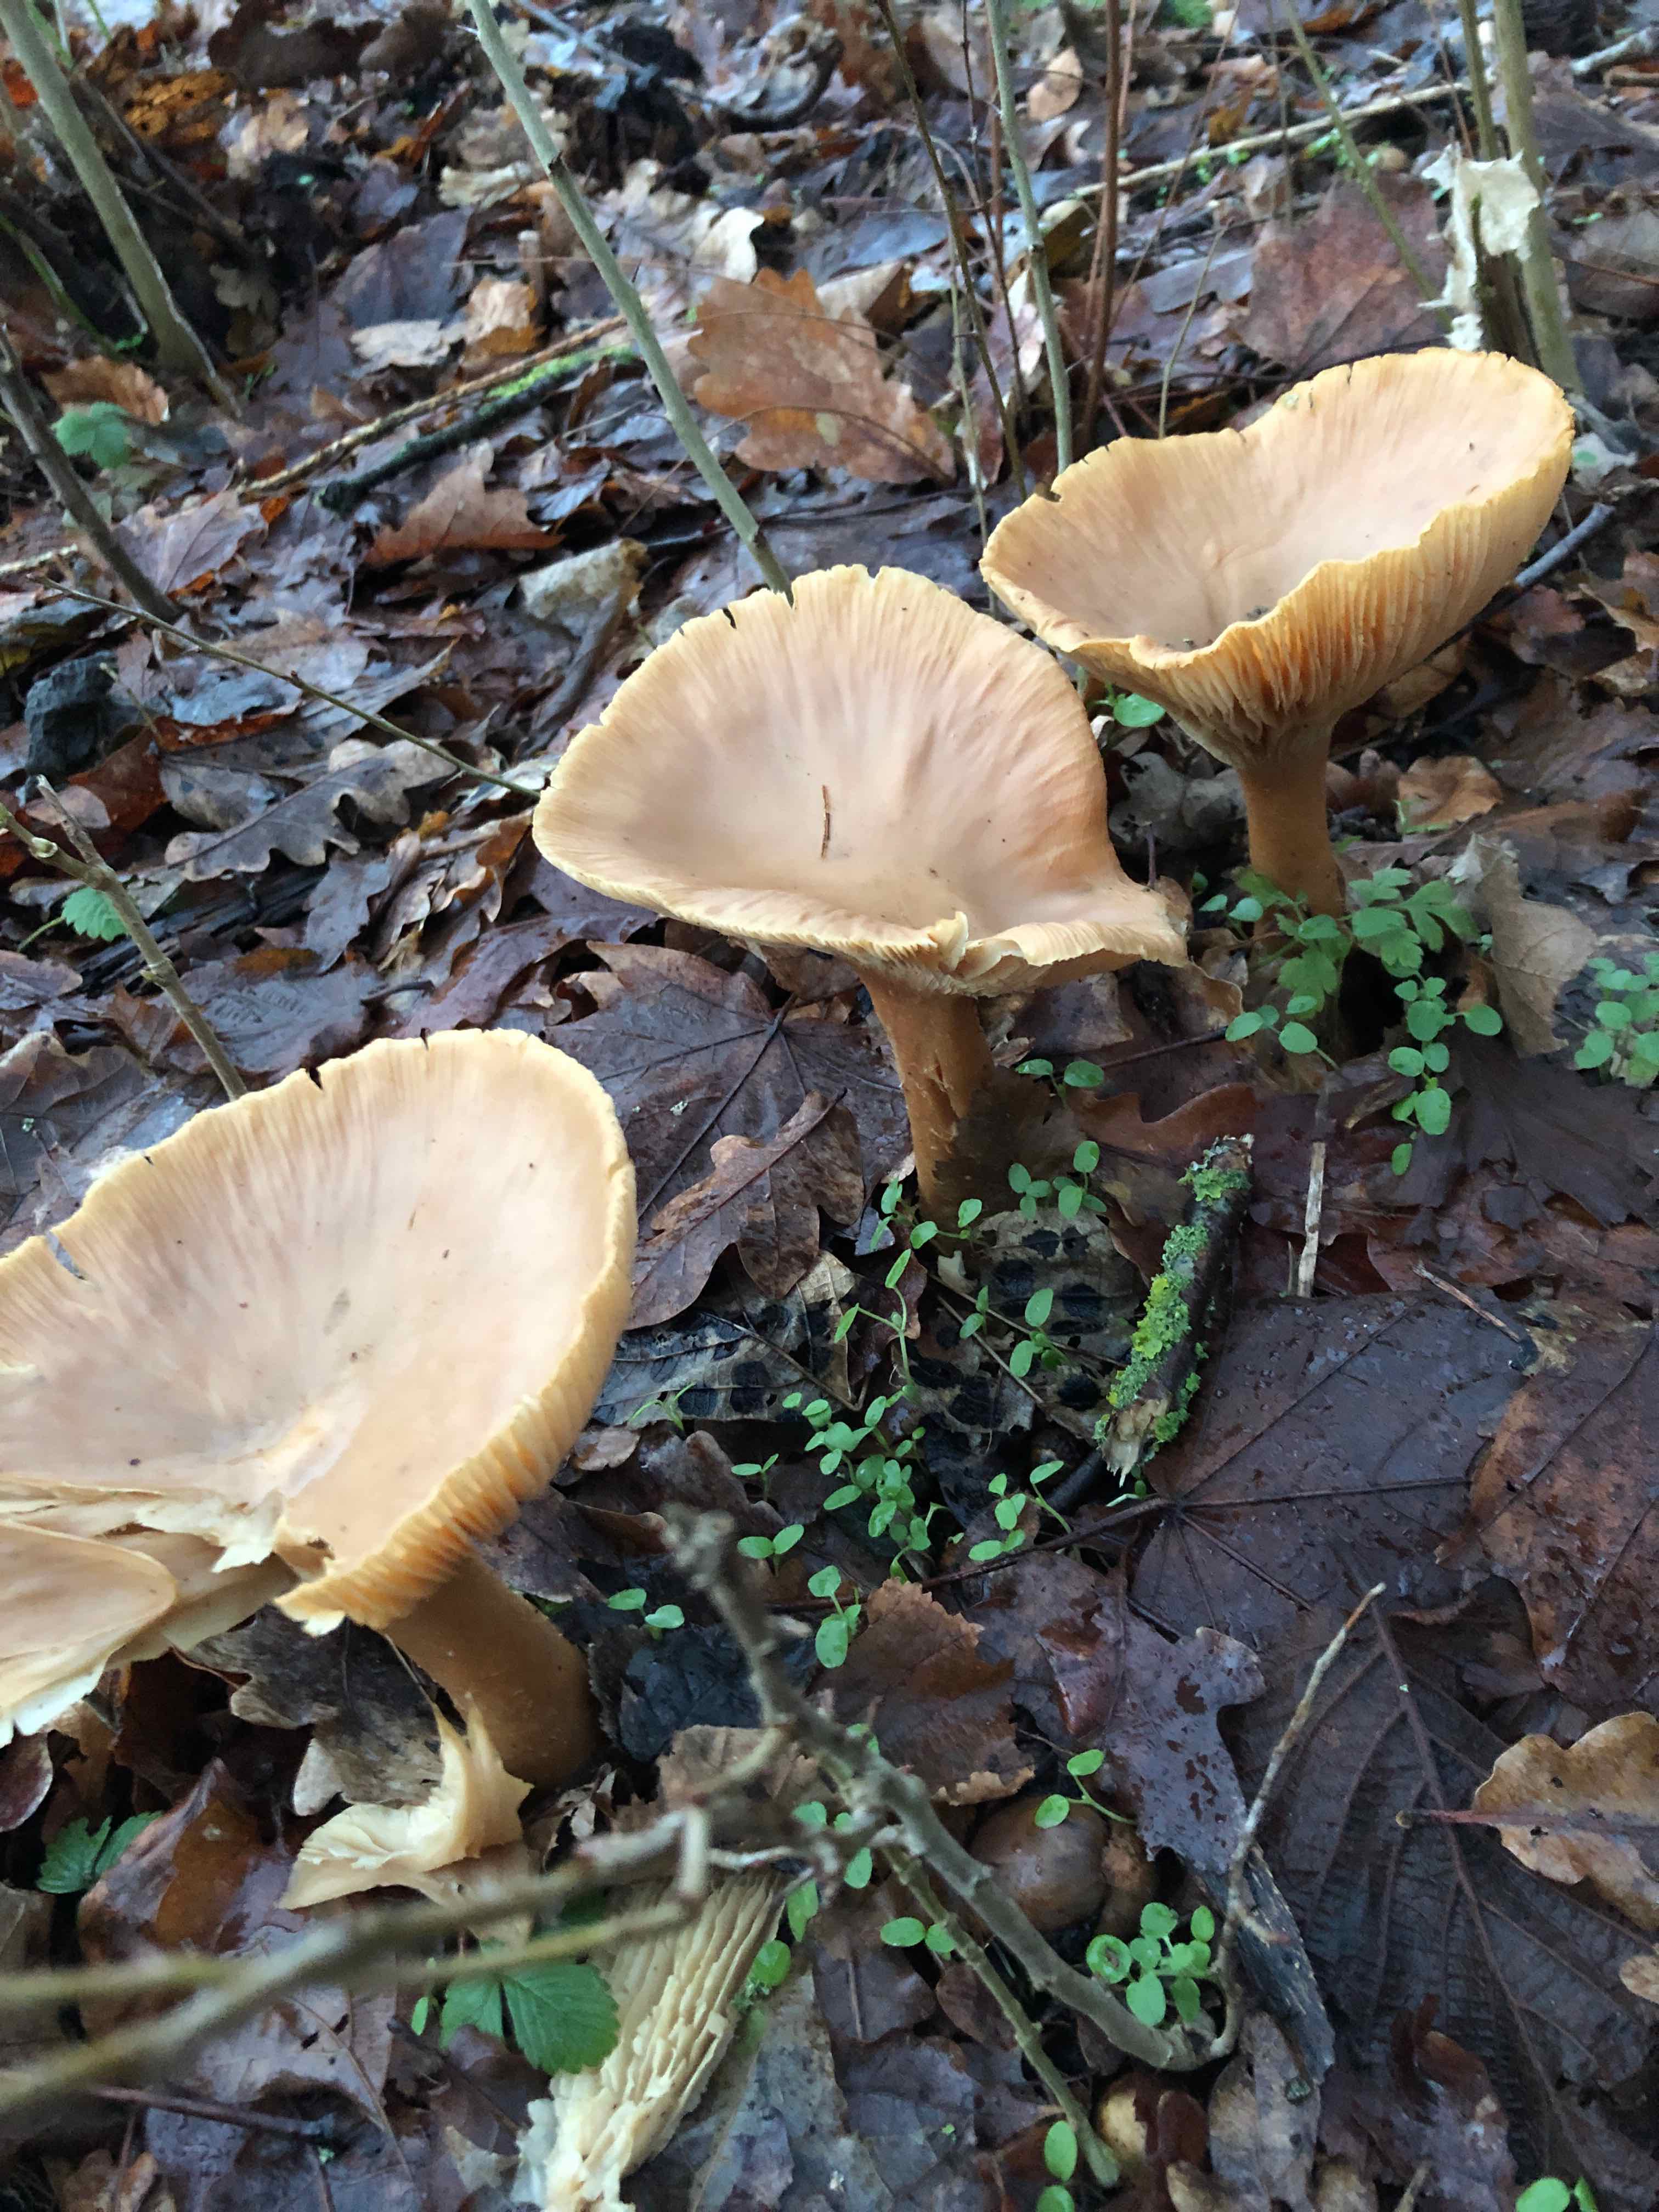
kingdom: Fungi
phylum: Basidiomycota
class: Agaricomycetes
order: Agaricales
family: Tricholomataceae
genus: Infundibulicybe
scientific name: Infundibulicybe geotropa
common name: stor tragthat
